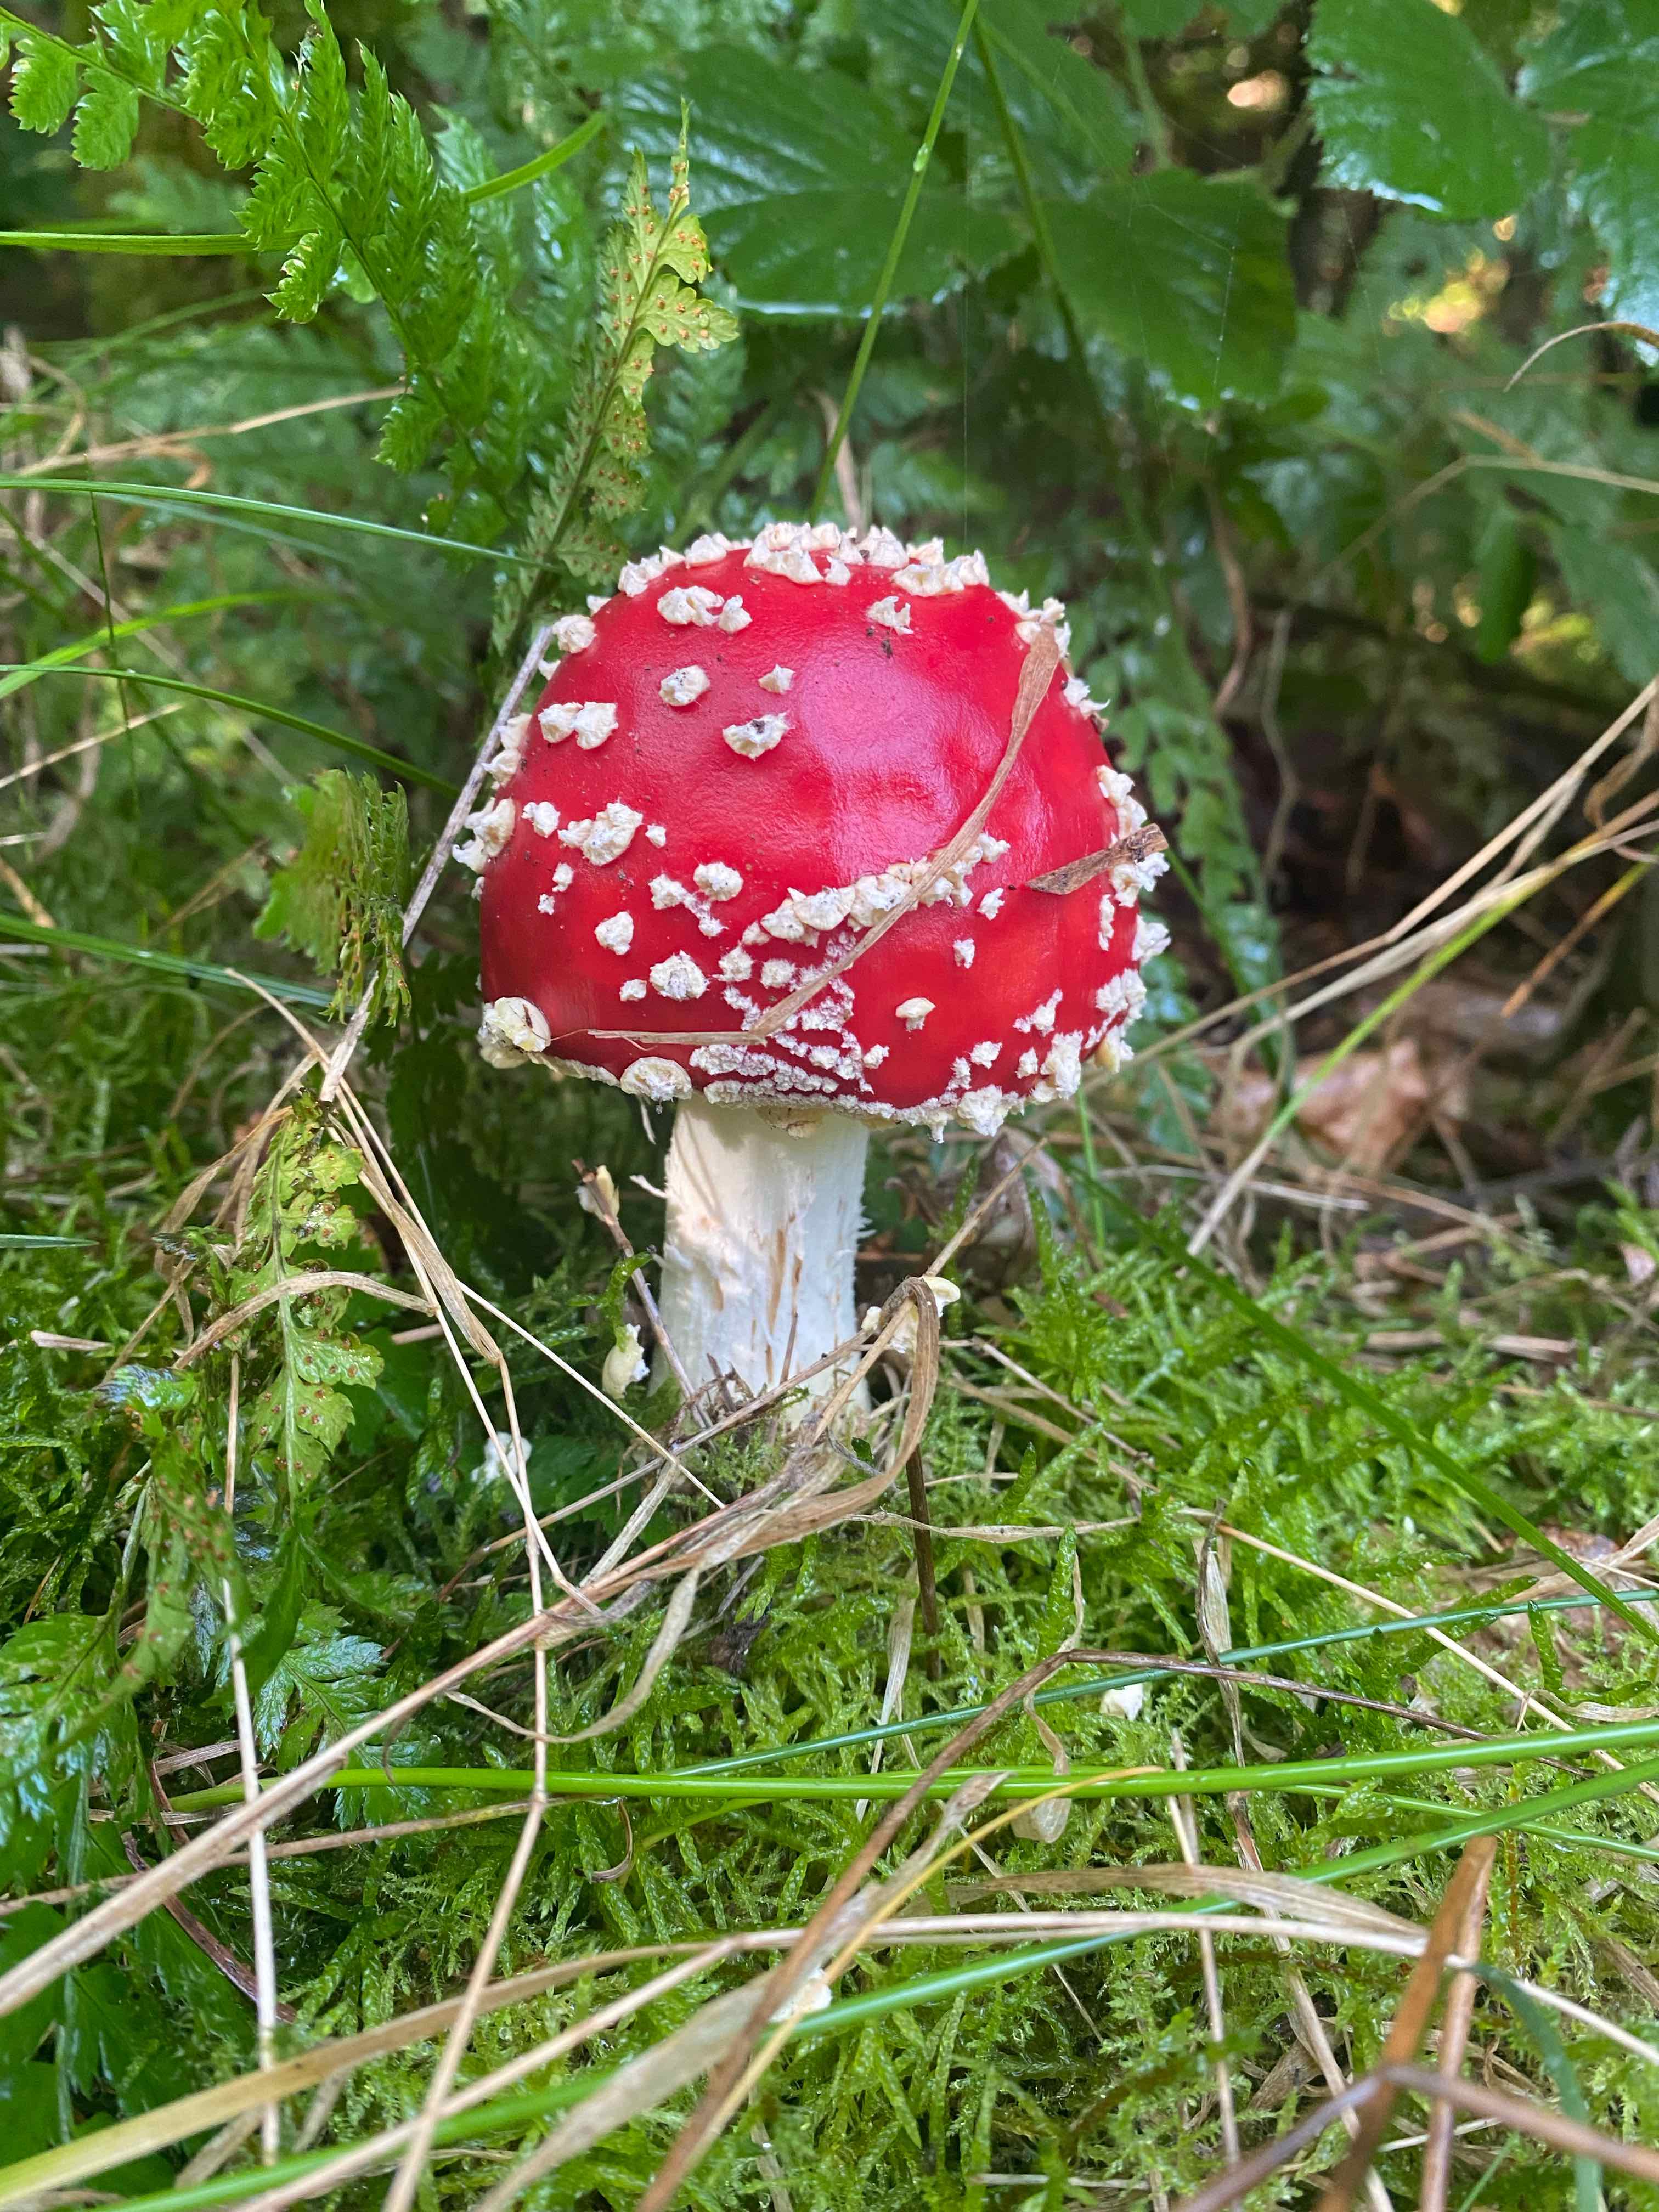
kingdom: Fungi
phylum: Basidiomycota
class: Agaricomycetes
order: Agaricales
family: Amanitaceae
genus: Amanita
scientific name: Amanita muscaria
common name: rød fluesvamp
